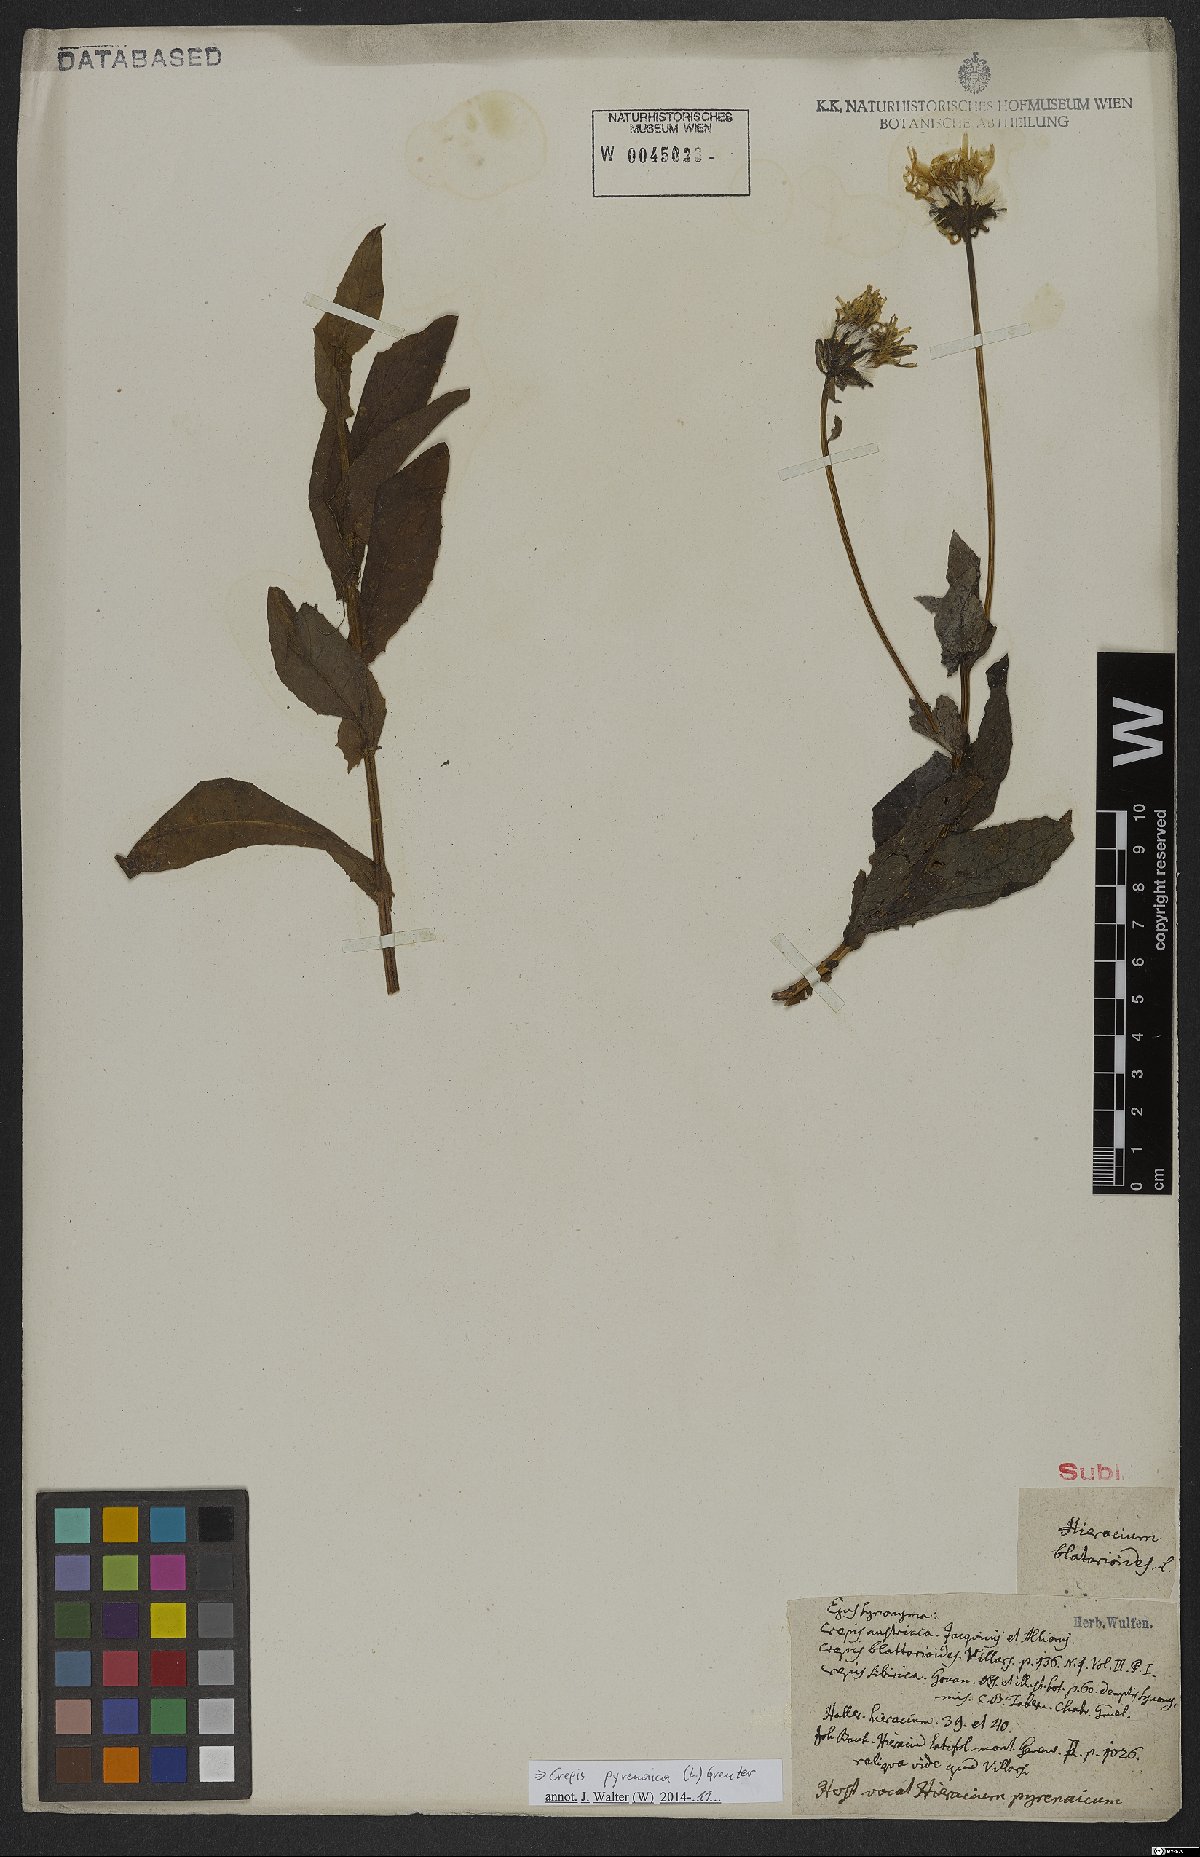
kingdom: Plantae
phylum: Tracheophyta
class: Magnoliopsida
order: Asterales
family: Asteraceae
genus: Crepis
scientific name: Crepis pyrenaica
